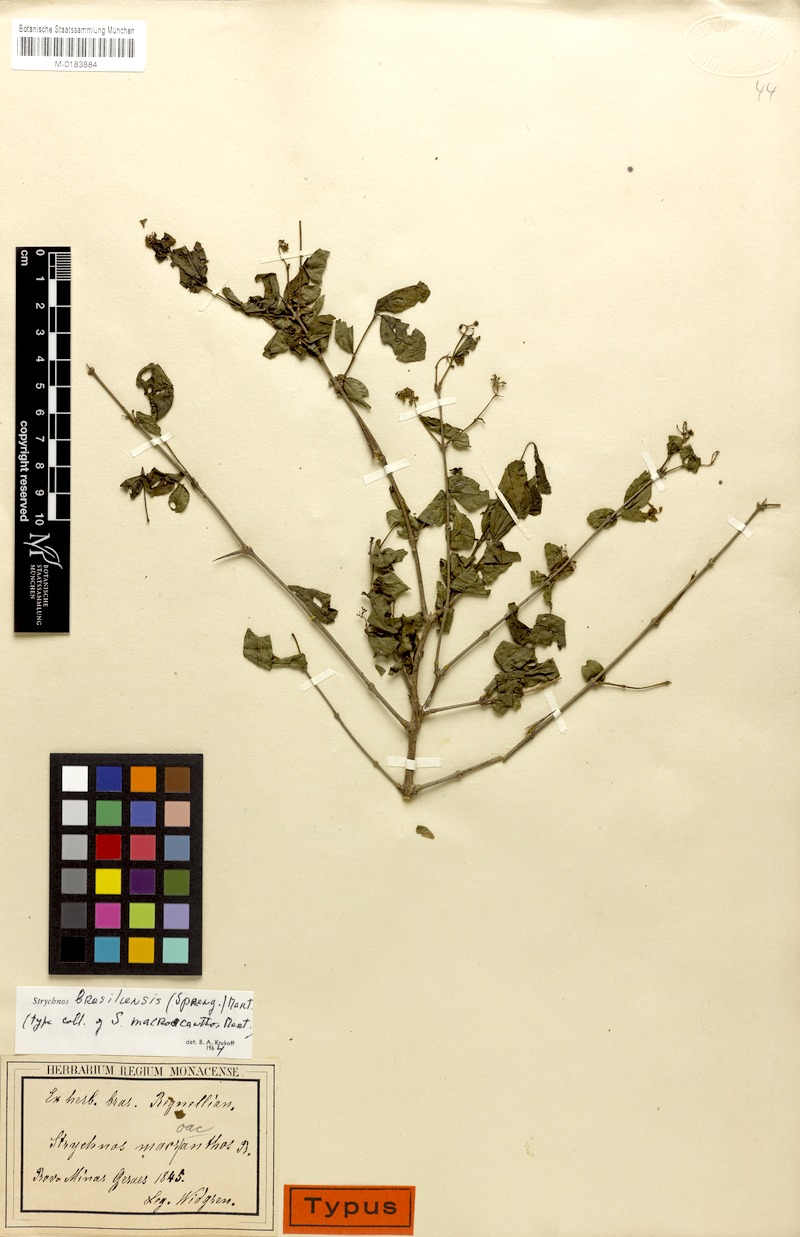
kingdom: Plantae
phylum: Tracheophyta
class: Magnoliopsida
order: Gentianales
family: Loganiaceae
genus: Strychnos
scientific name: Strychnos brasiliensis
